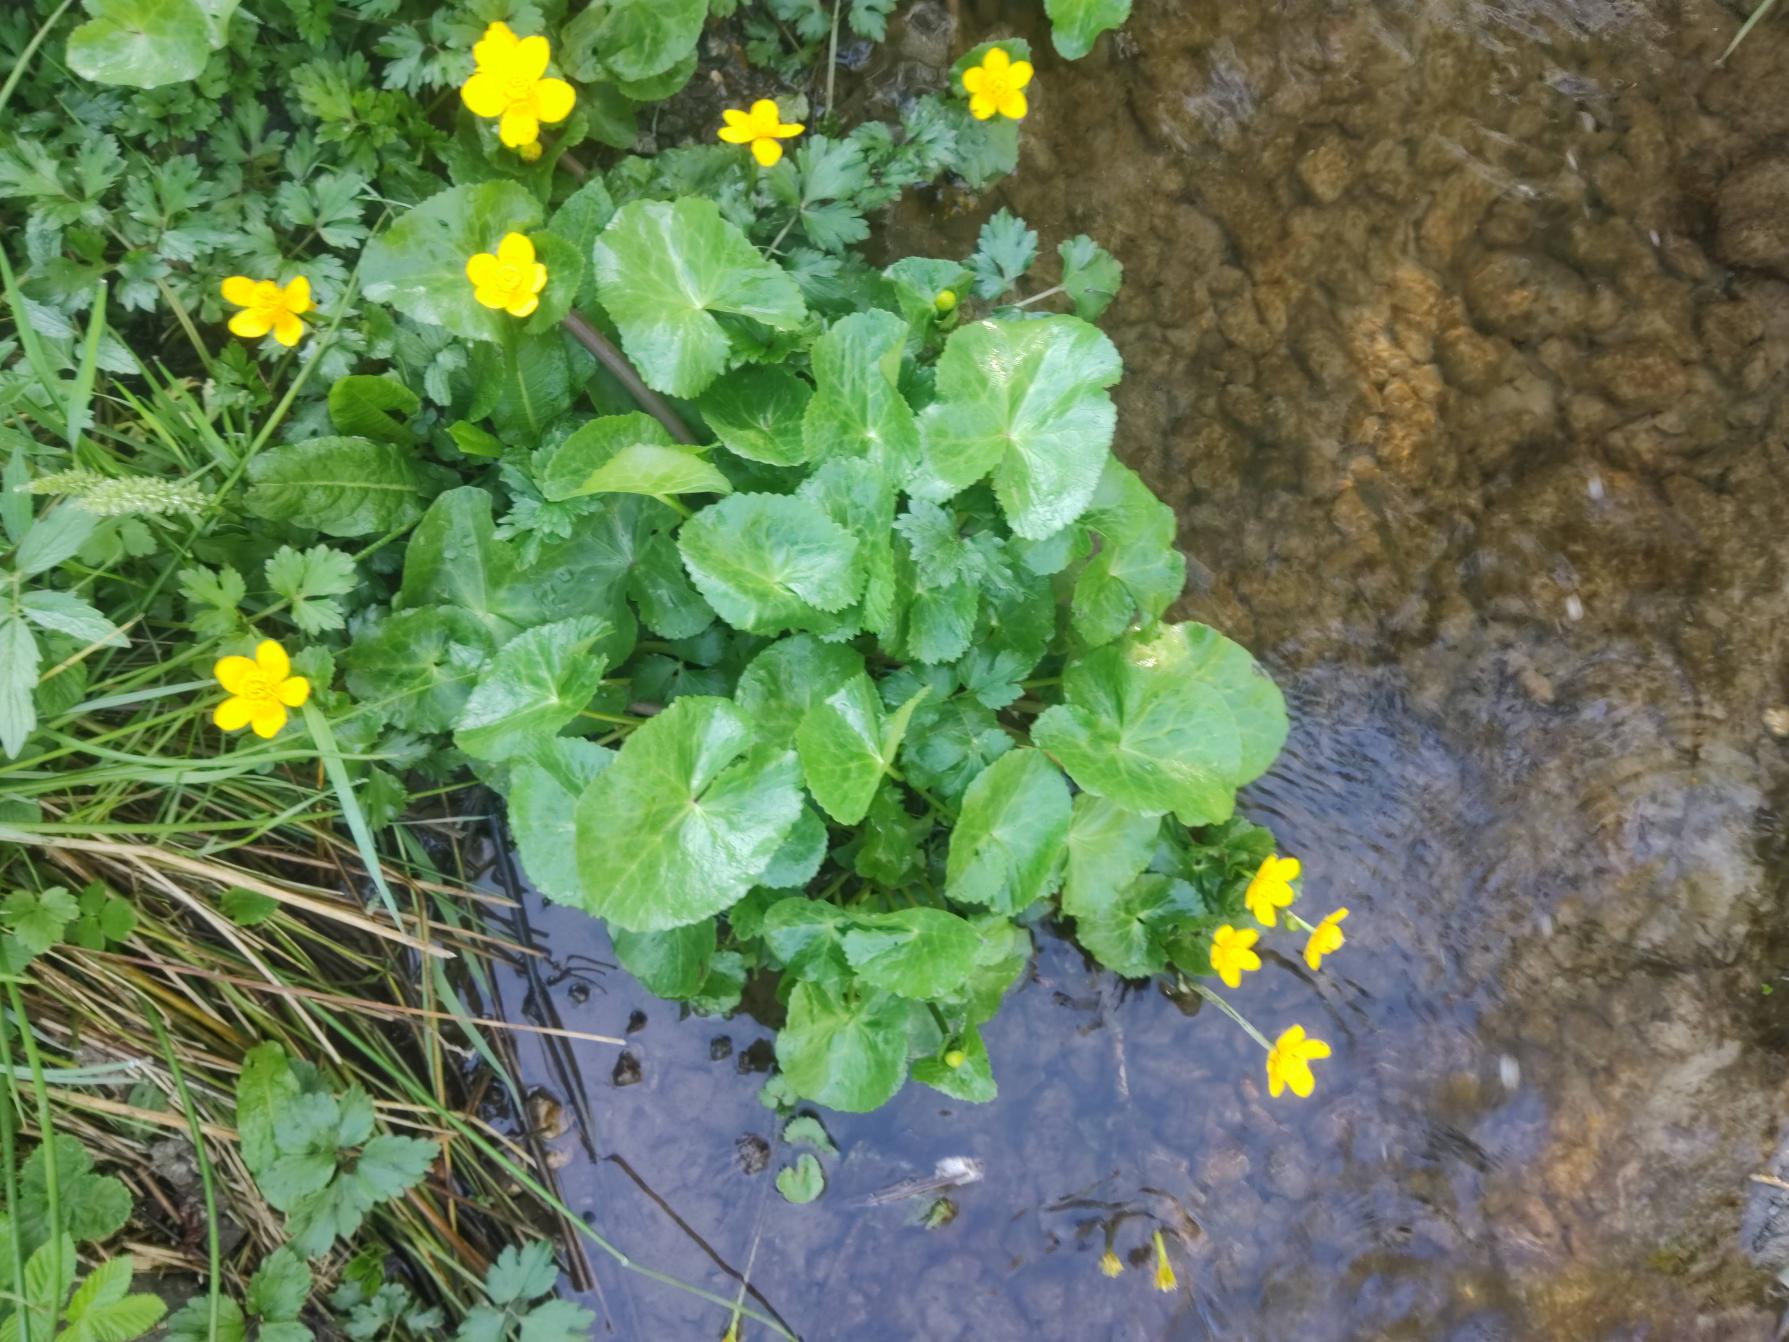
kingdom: Plantae
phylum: Tracheophyta
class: Magnoliopsida
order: Ranunculales
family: Ranunculaceae
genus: Caltha
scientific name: Caltha palustris
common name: Eng-kabbeleje
